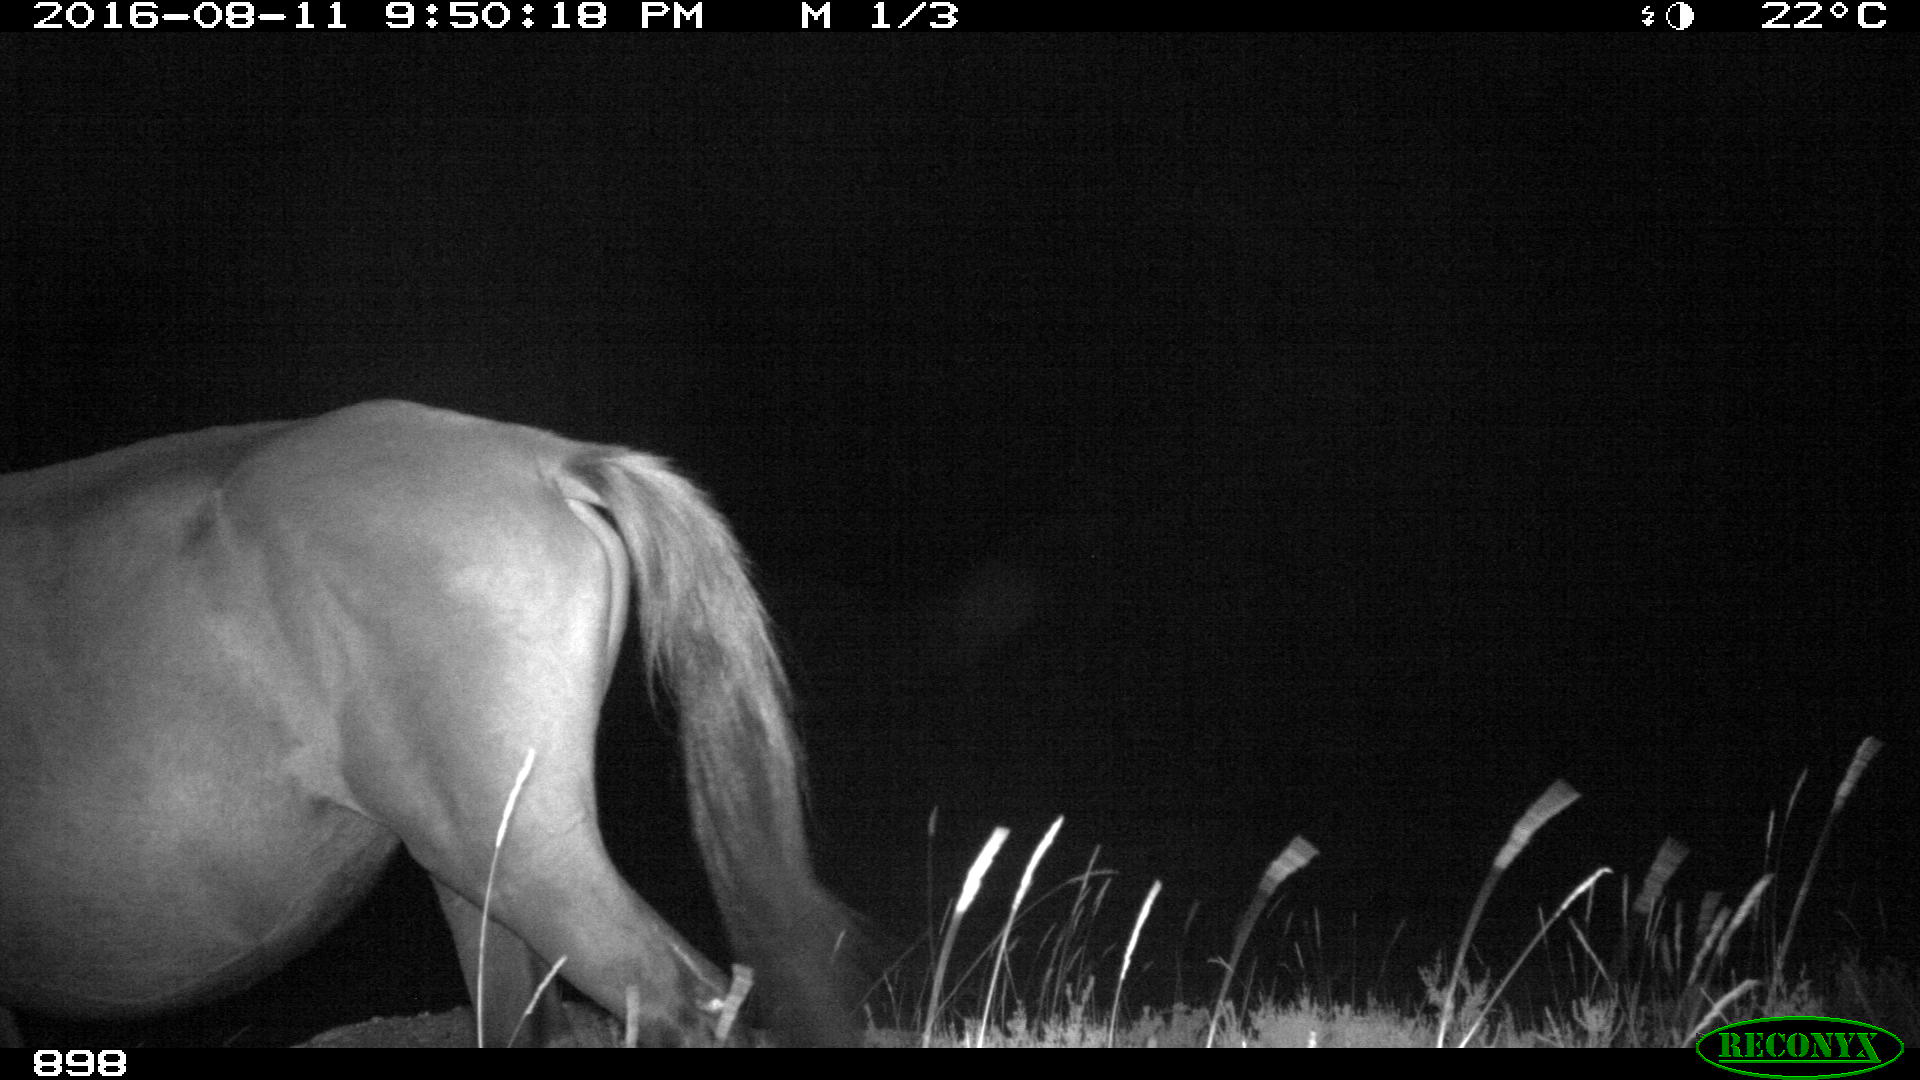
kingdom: Animalia
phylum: Chordata
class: Mammalia
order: Perissodactyla
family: Equidae
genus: Equus
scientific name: Equus caballus
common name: Horse
